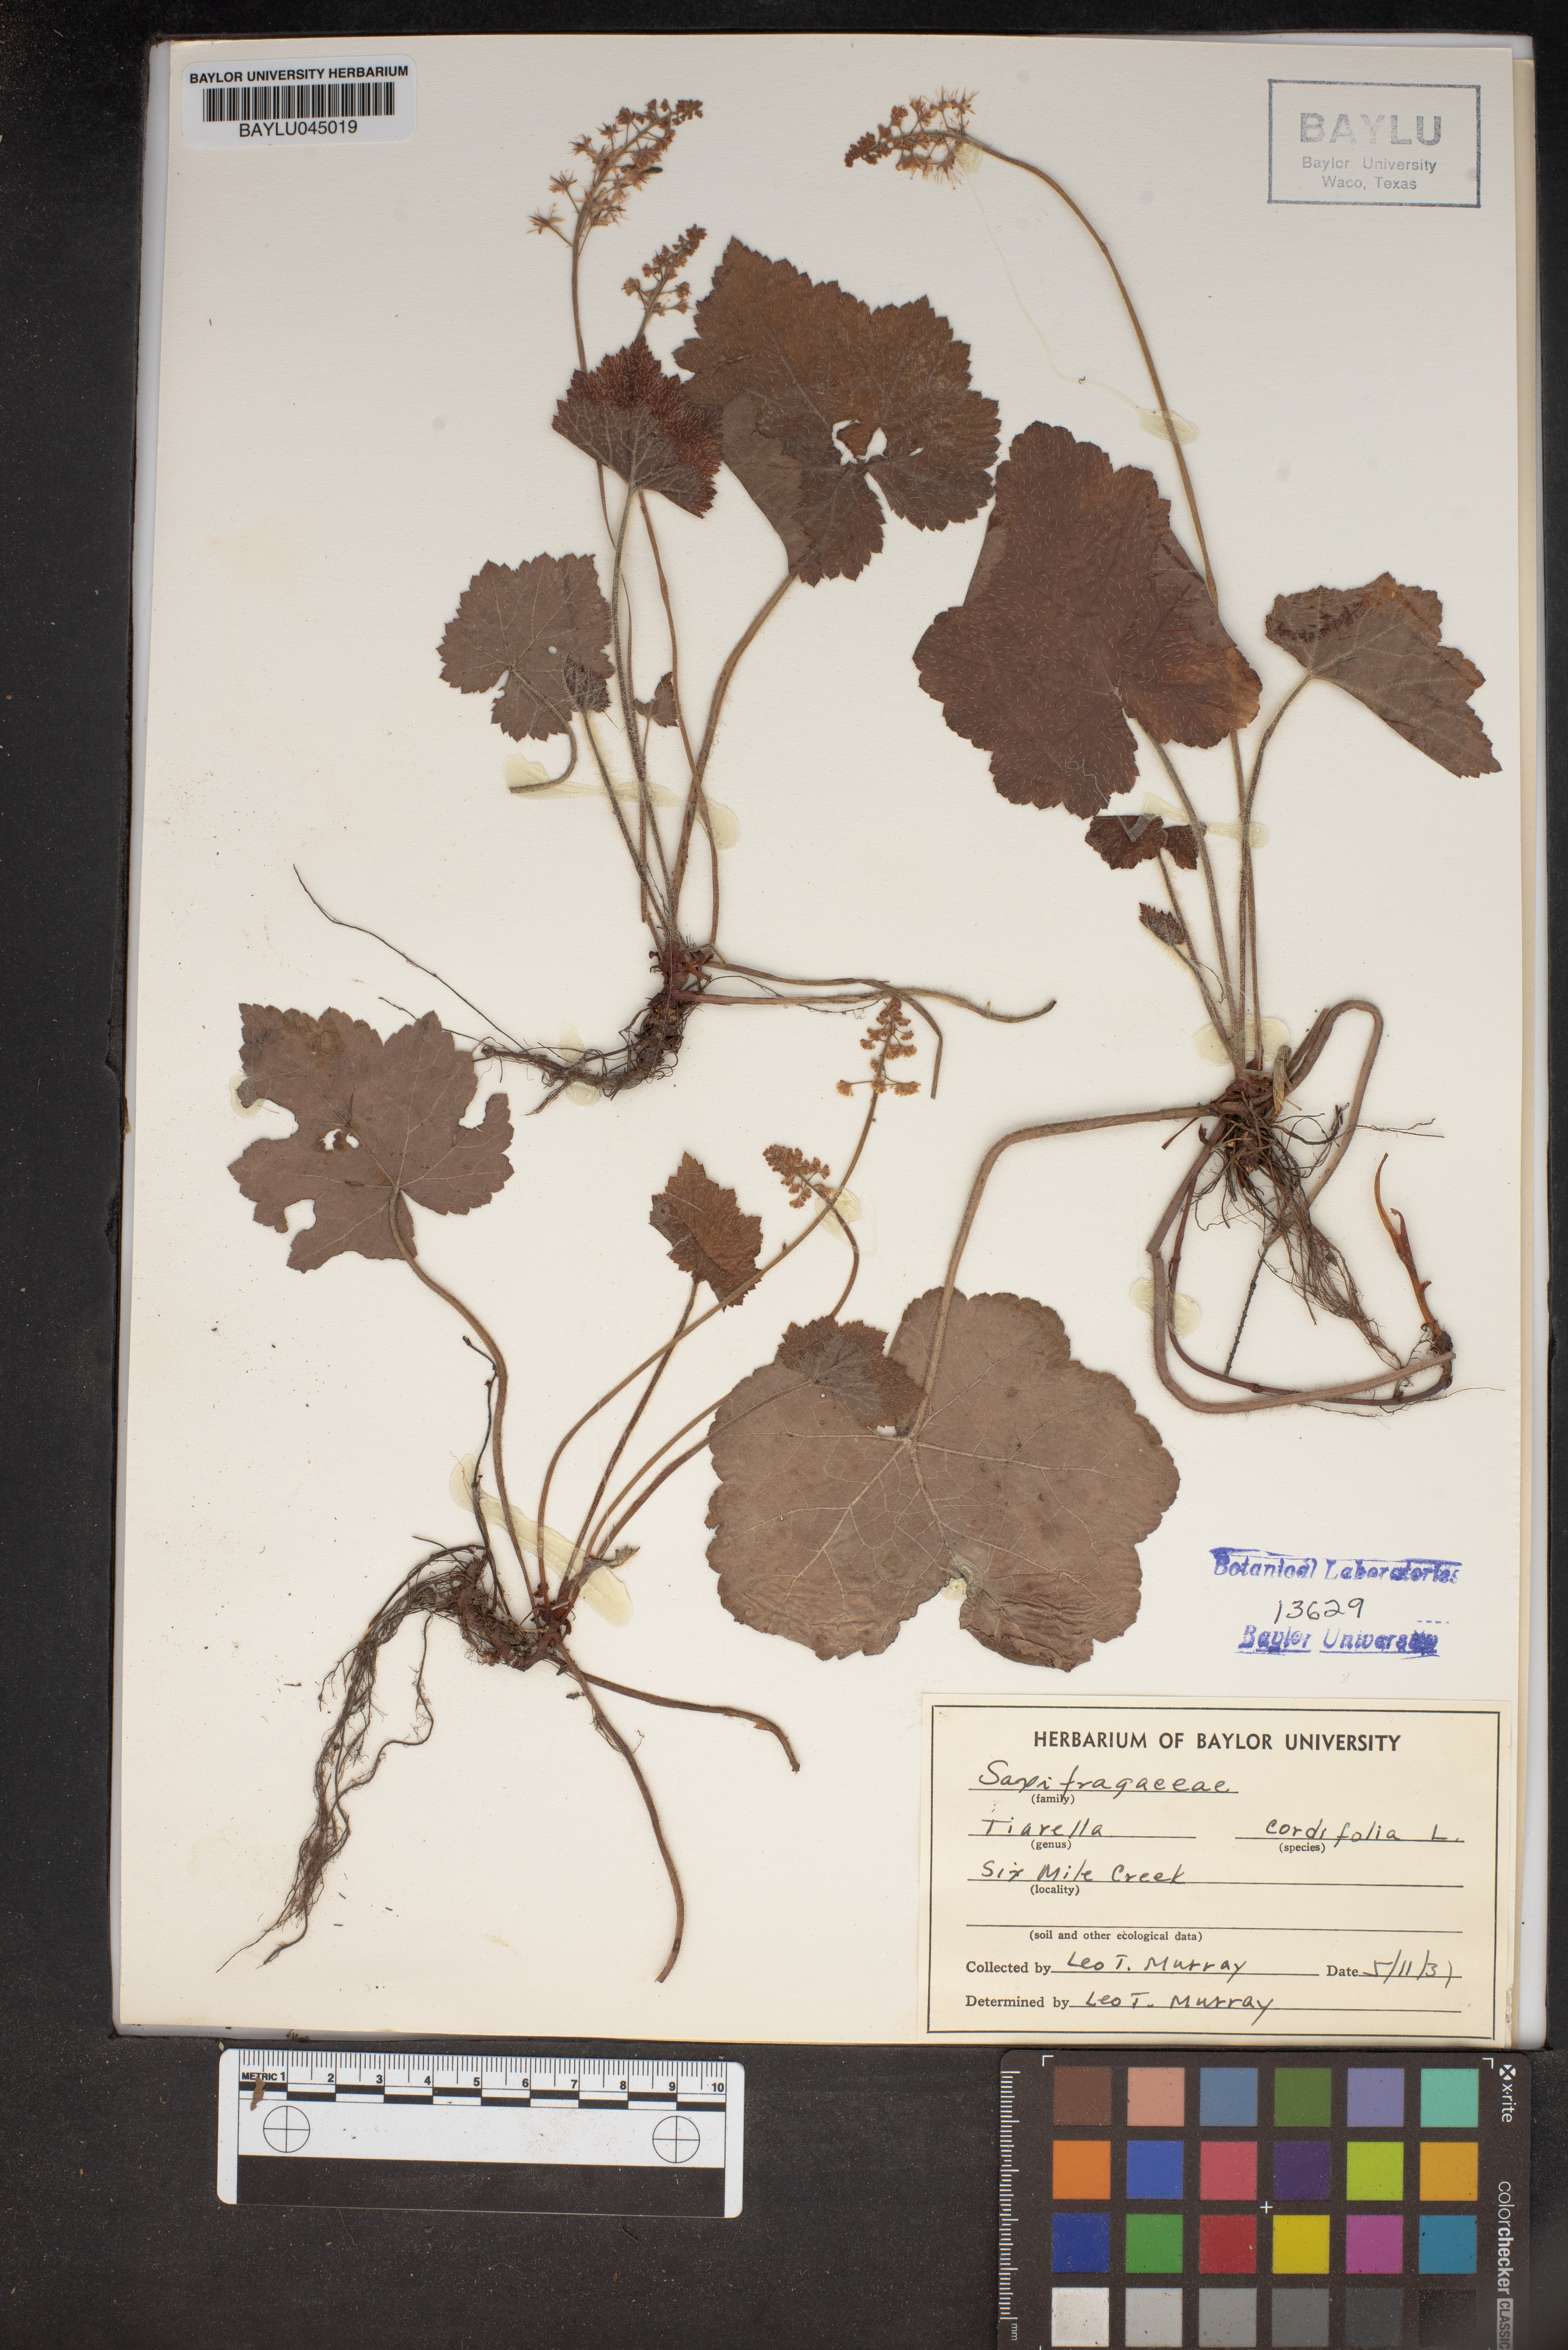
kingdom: Plantae
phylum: Tracheophyta
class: Magnoliopsida
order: Saxifragales
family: Saxifragaceae
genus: Tiarella
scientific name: Tiarella cordifolia
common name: Foamflower
